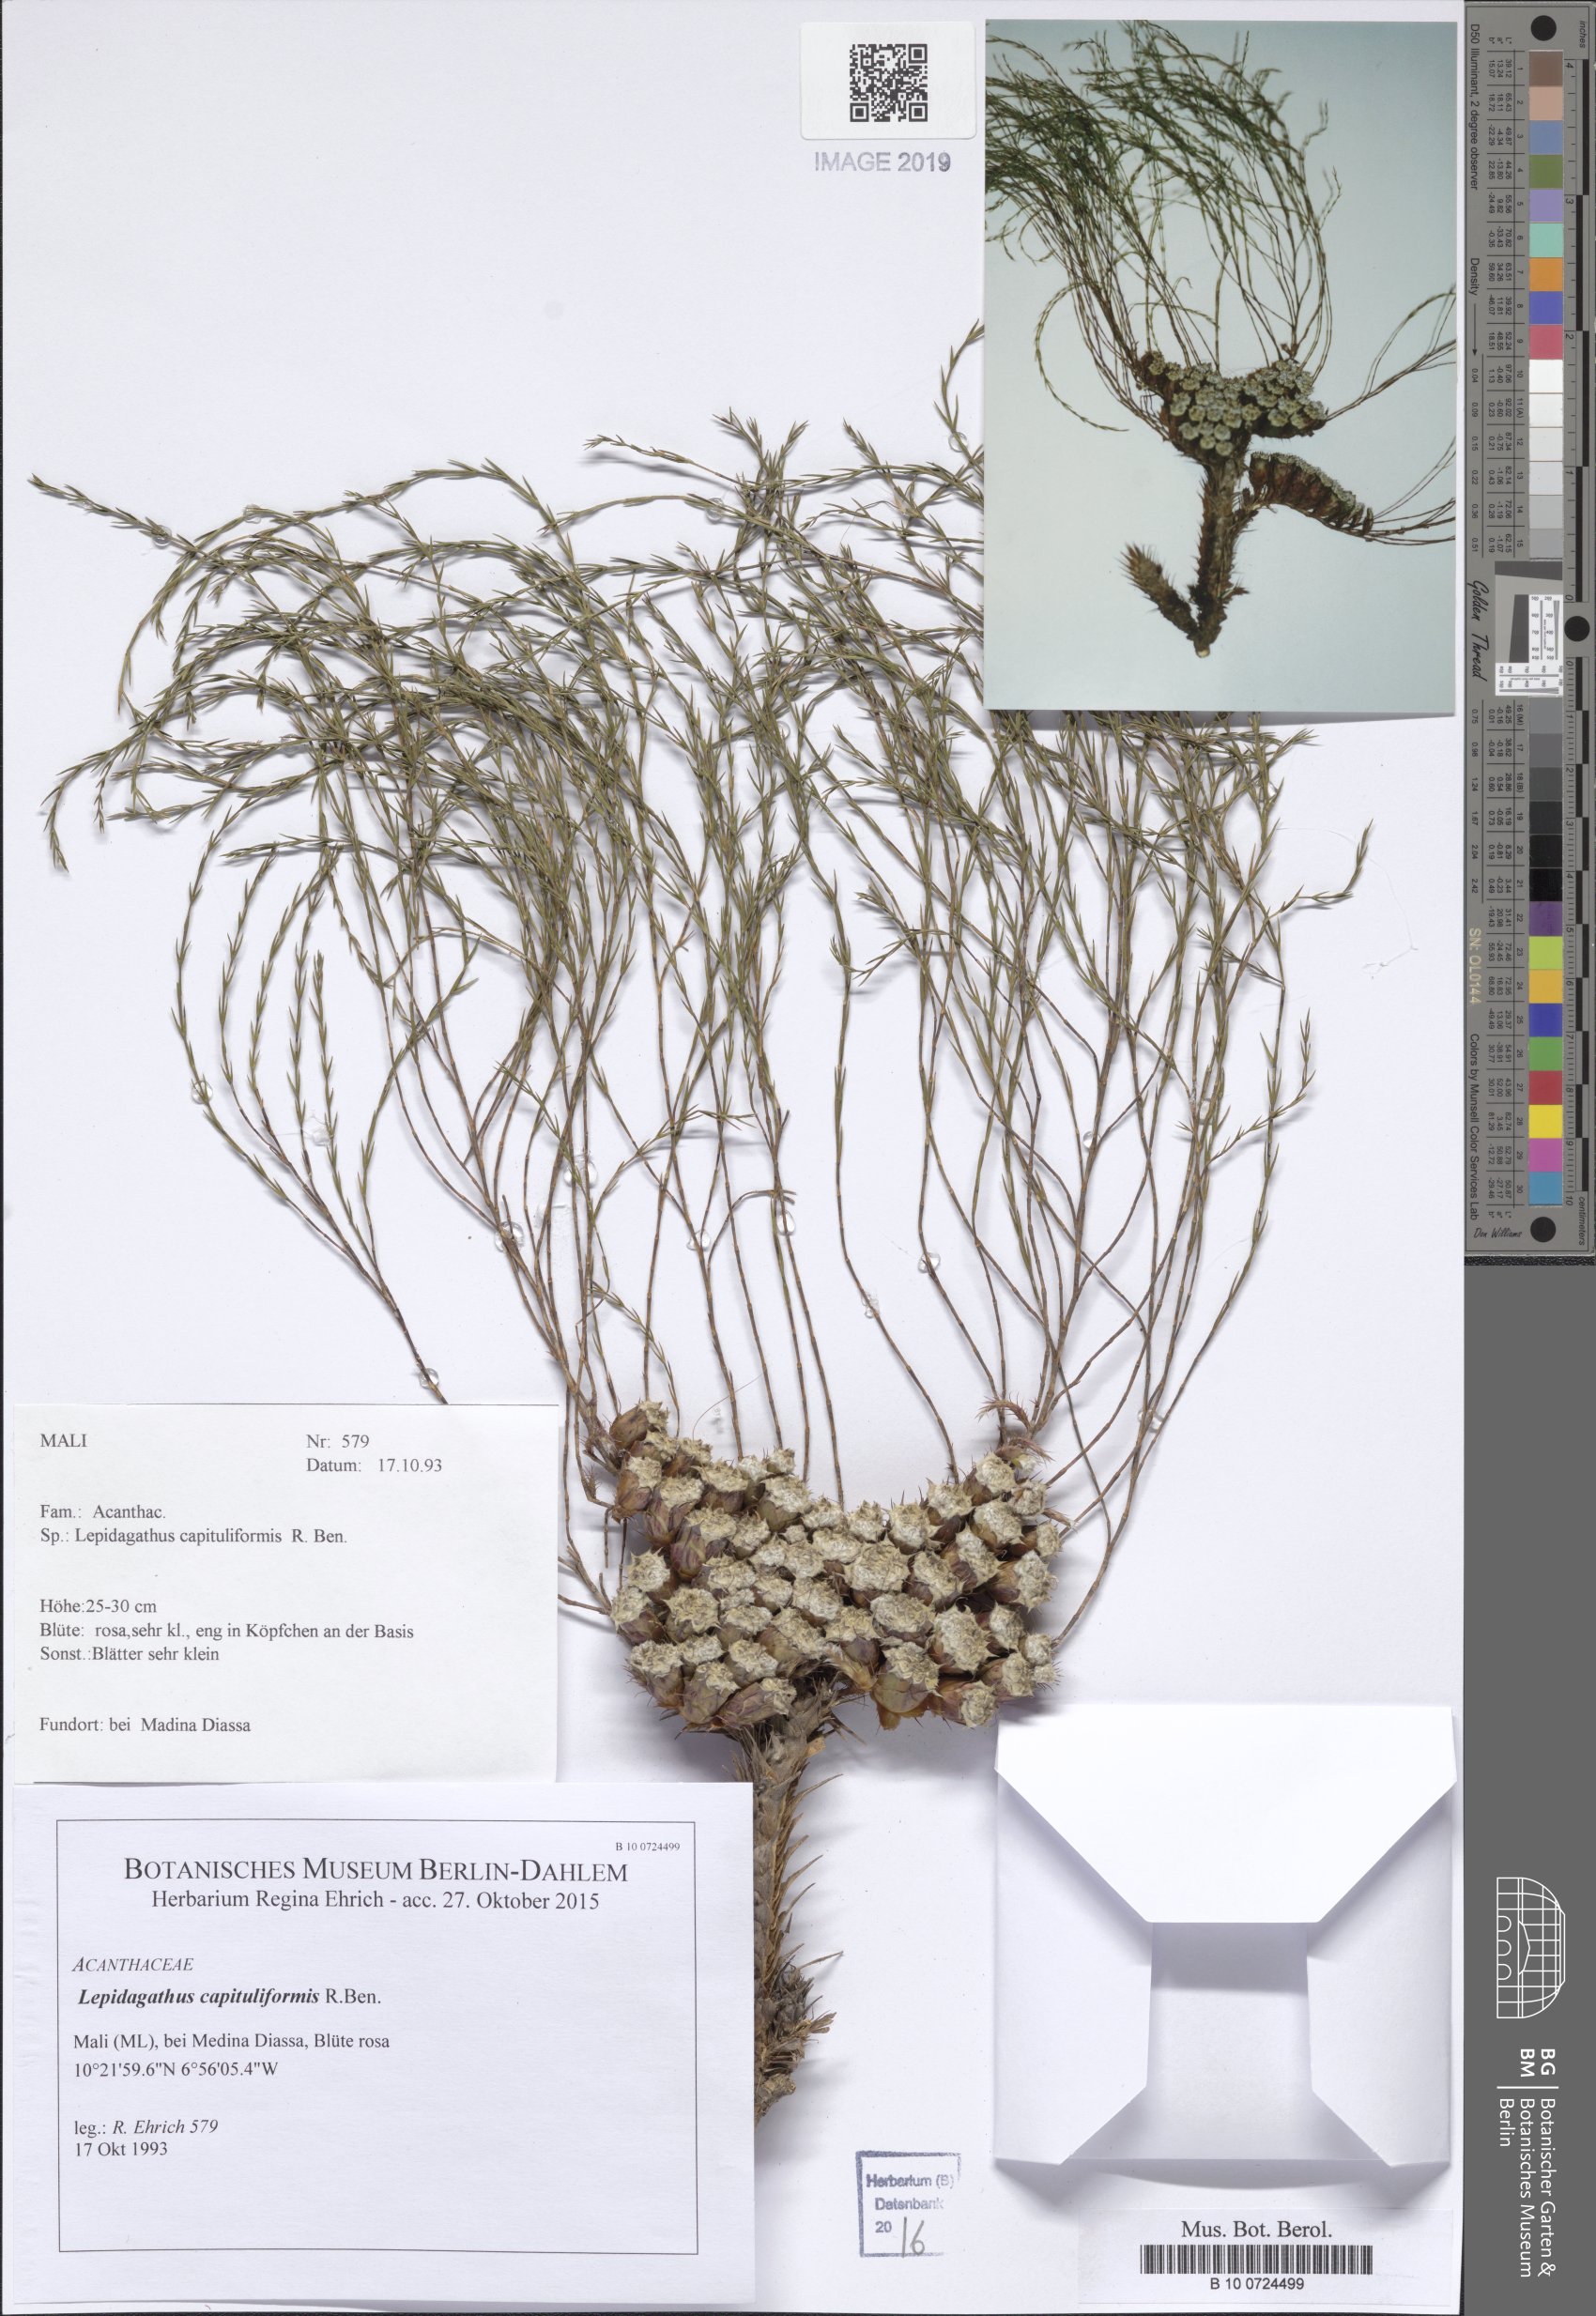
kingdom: Plantae
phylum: Tracheophyta
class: Magnoliopsida
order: Lamiales
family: Acanthaceae
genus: Lepidagathis
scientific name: Lepidagathis capituliformis
